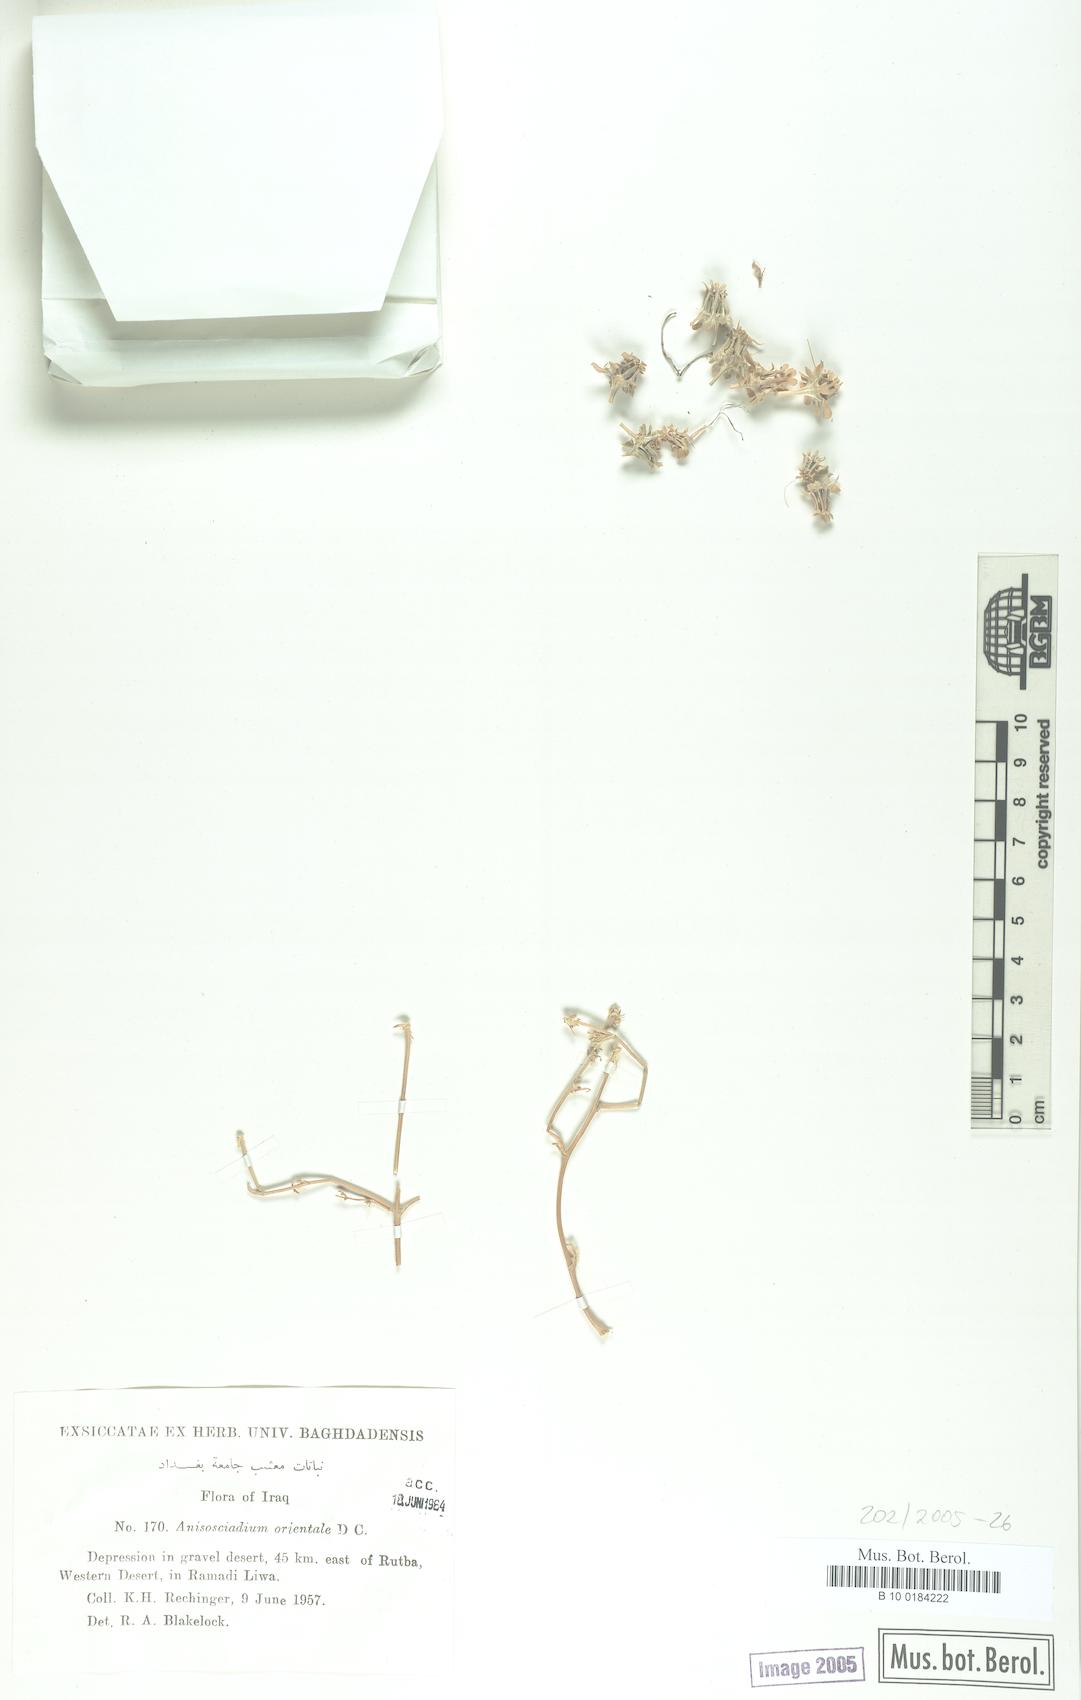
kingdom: Plantae
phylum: Tracheophyta
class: Magnoliopsida
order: Apiales
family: Apiaceae
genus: Anisosciadium
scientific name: Anisosciadium orientale
